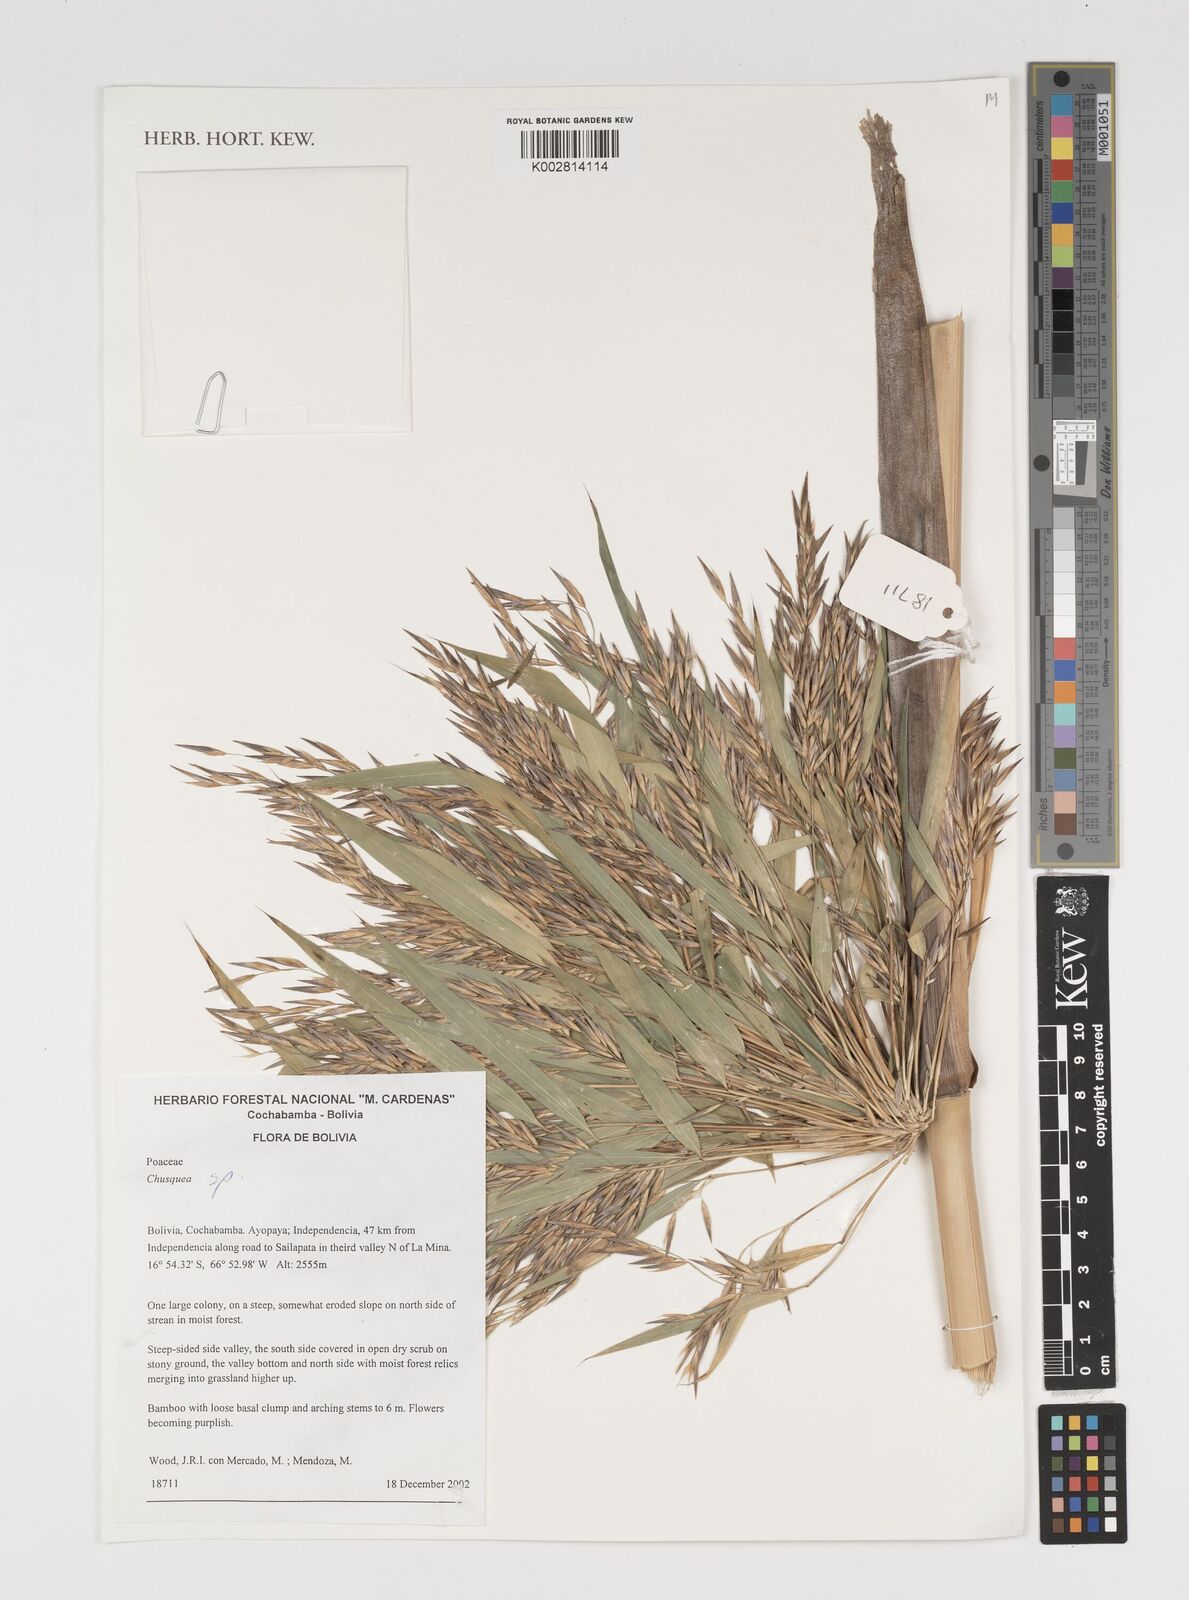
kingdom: Plantae
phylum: Tracheophyta
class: Liliopsida
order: Poales
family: Poaceae
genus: Chusquea
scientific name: Chusquea
